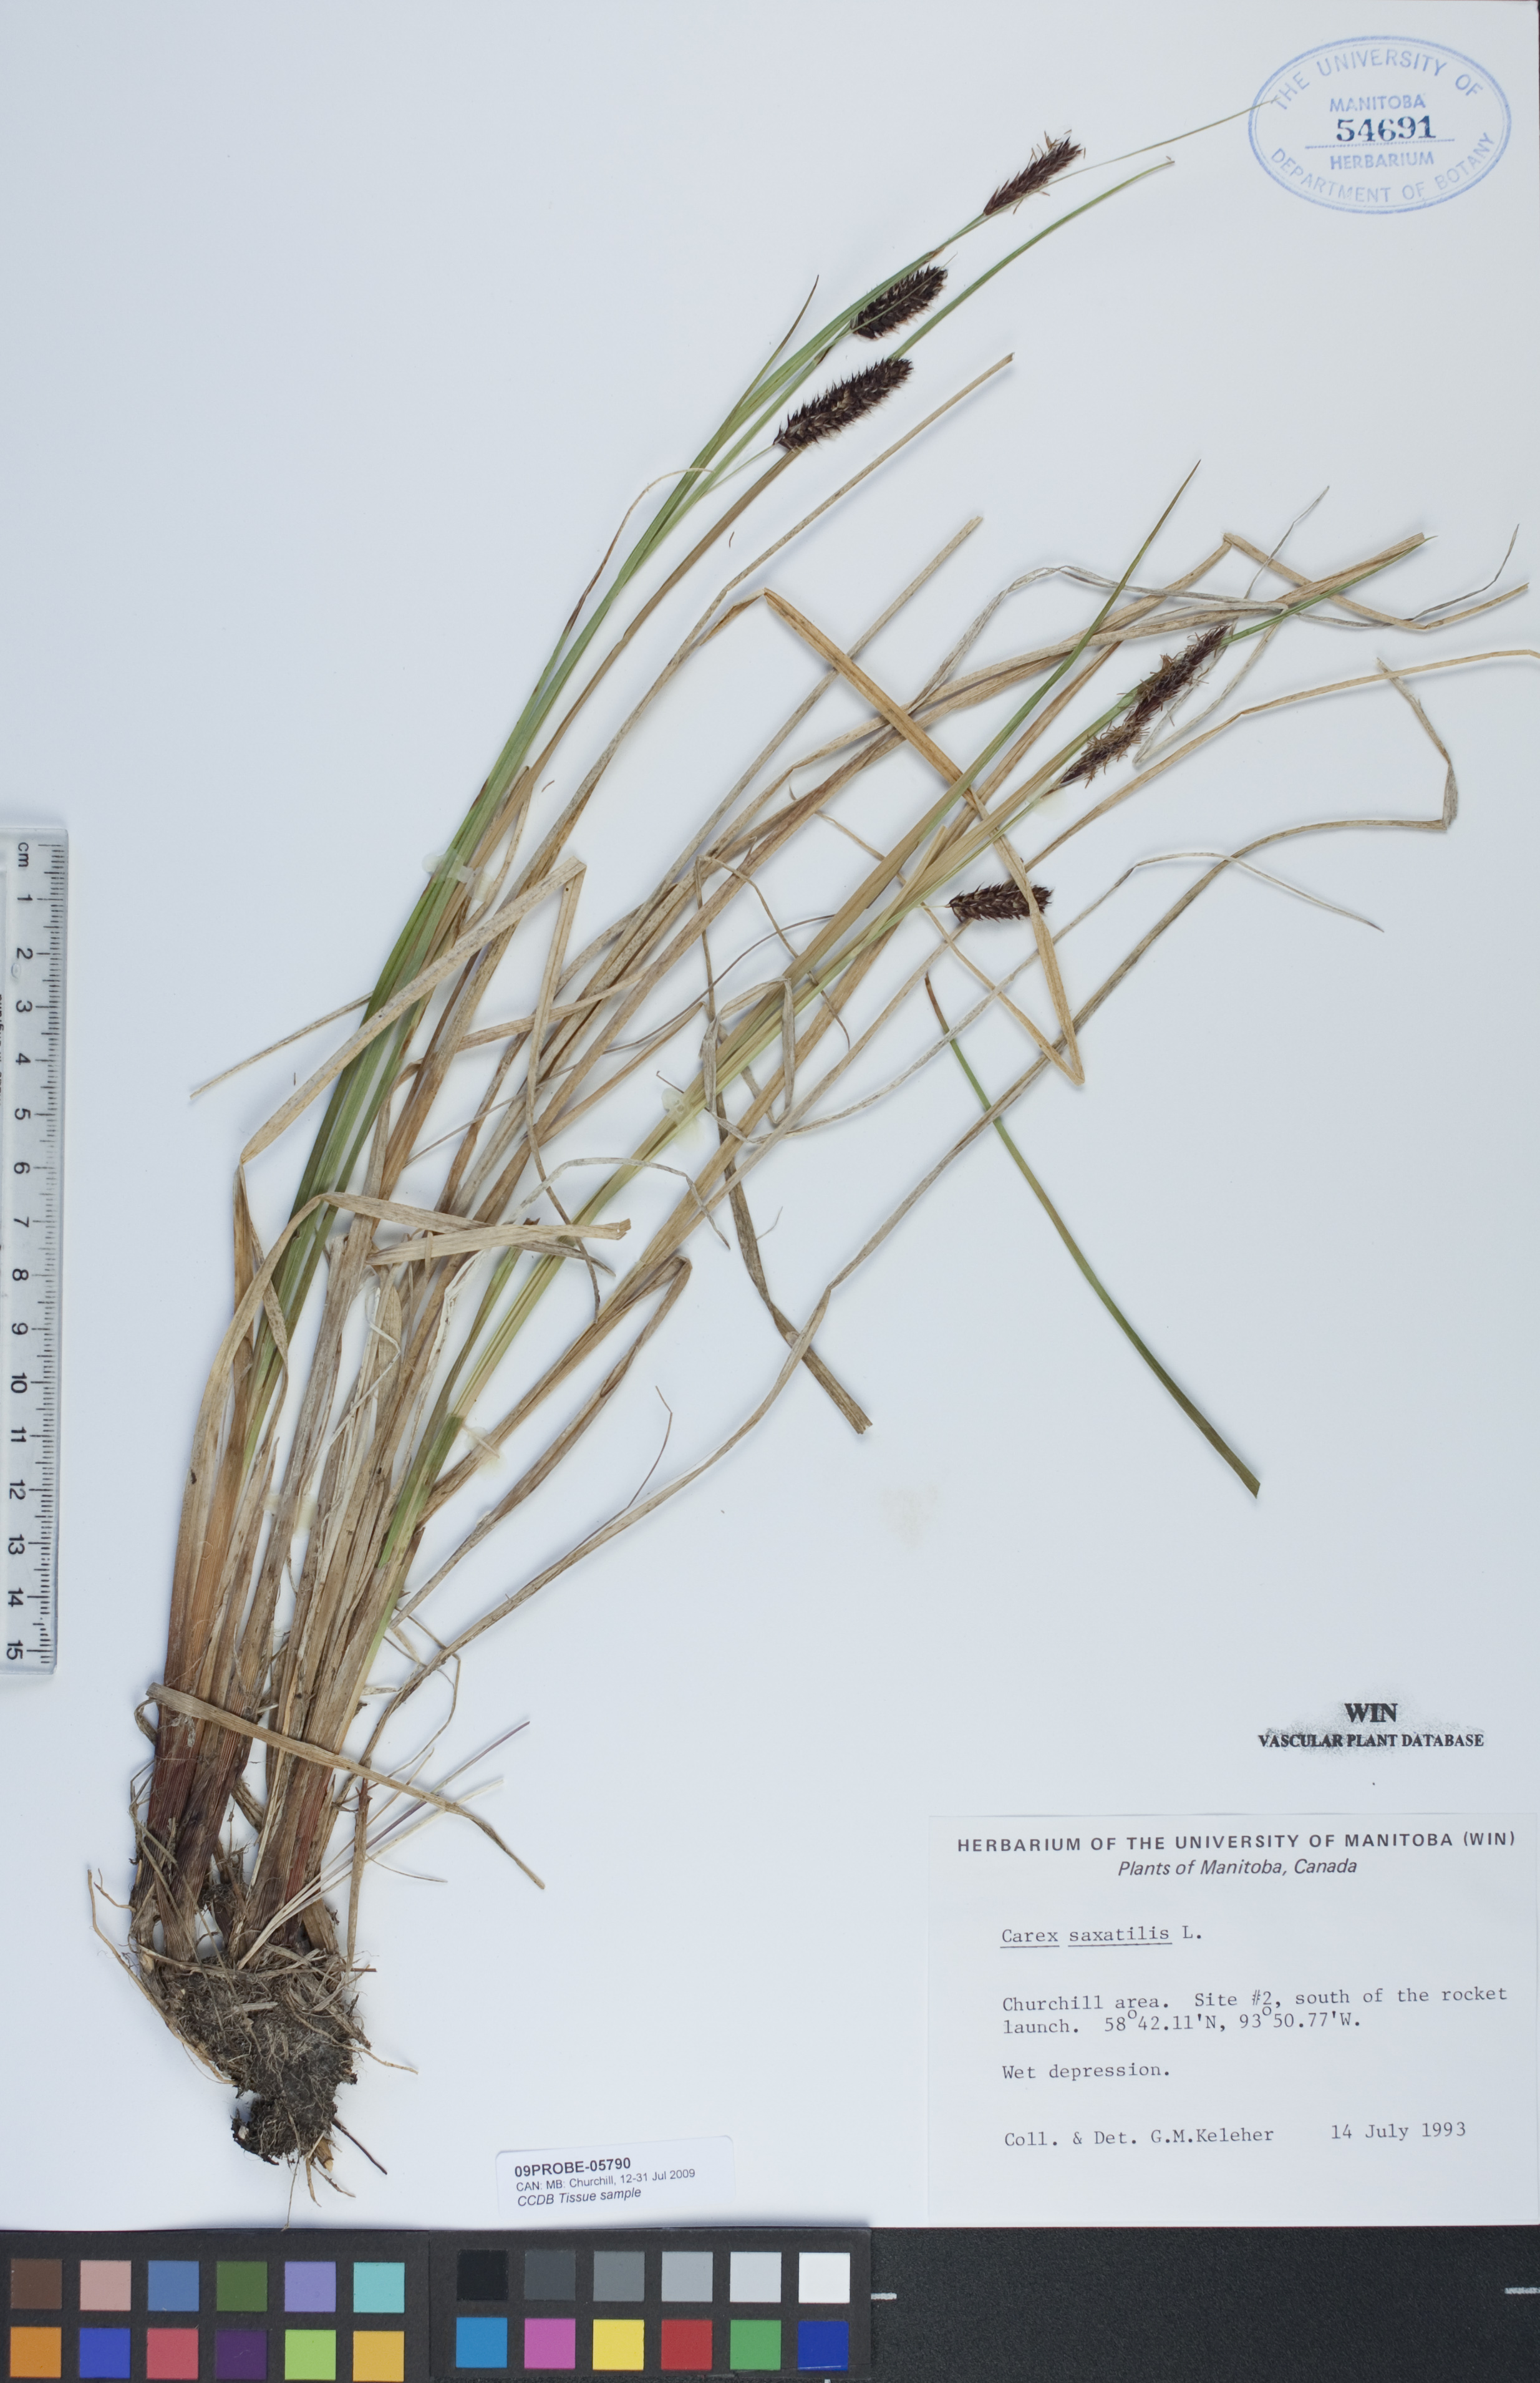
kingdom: Plantae
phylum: Tracheophyta
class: Liliopsida
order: Poales
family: Cyperaceae
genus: Carex
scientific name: Carex saxatilis
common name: Russet sedge
